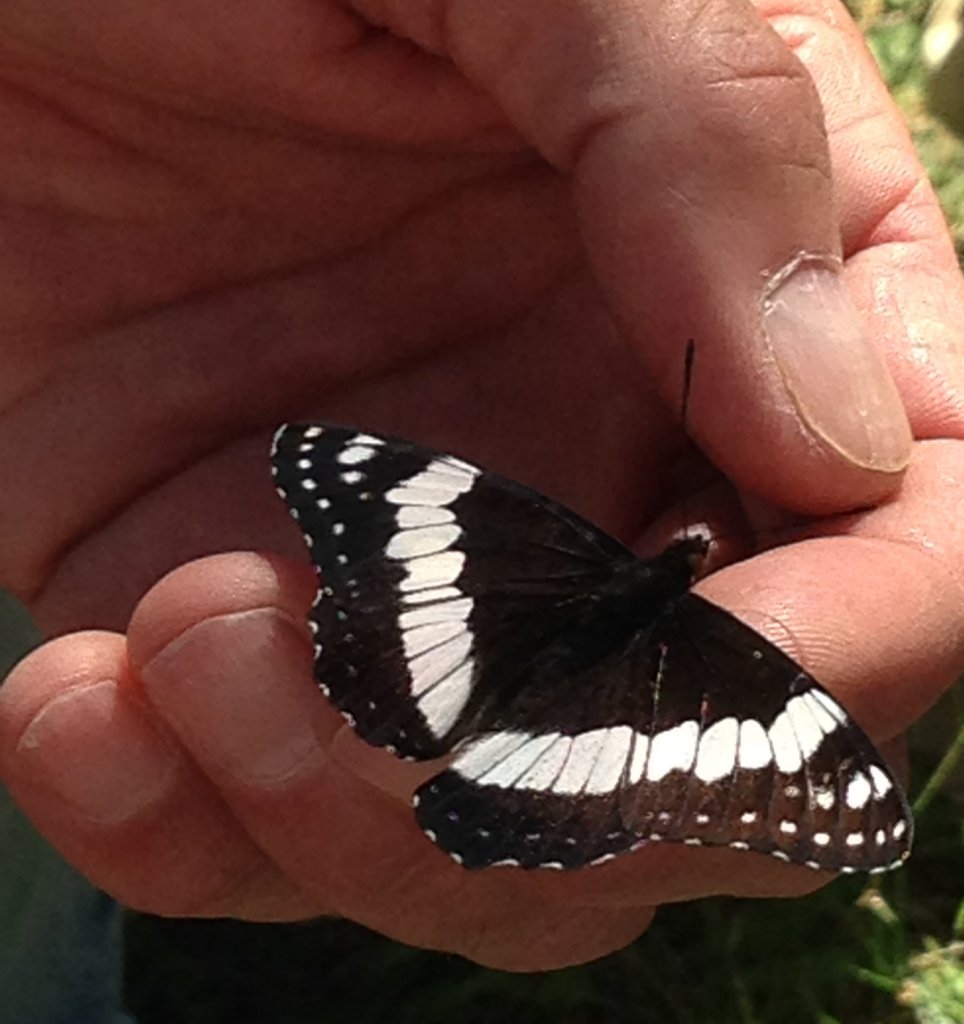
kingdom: Animalia
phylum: Arthropoda
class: Insecta
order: Lepidoptera
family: Nymphalidae
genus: Limenitis
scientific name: Limenitis weidemeyerii
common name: Weidemeyer's Admiral
